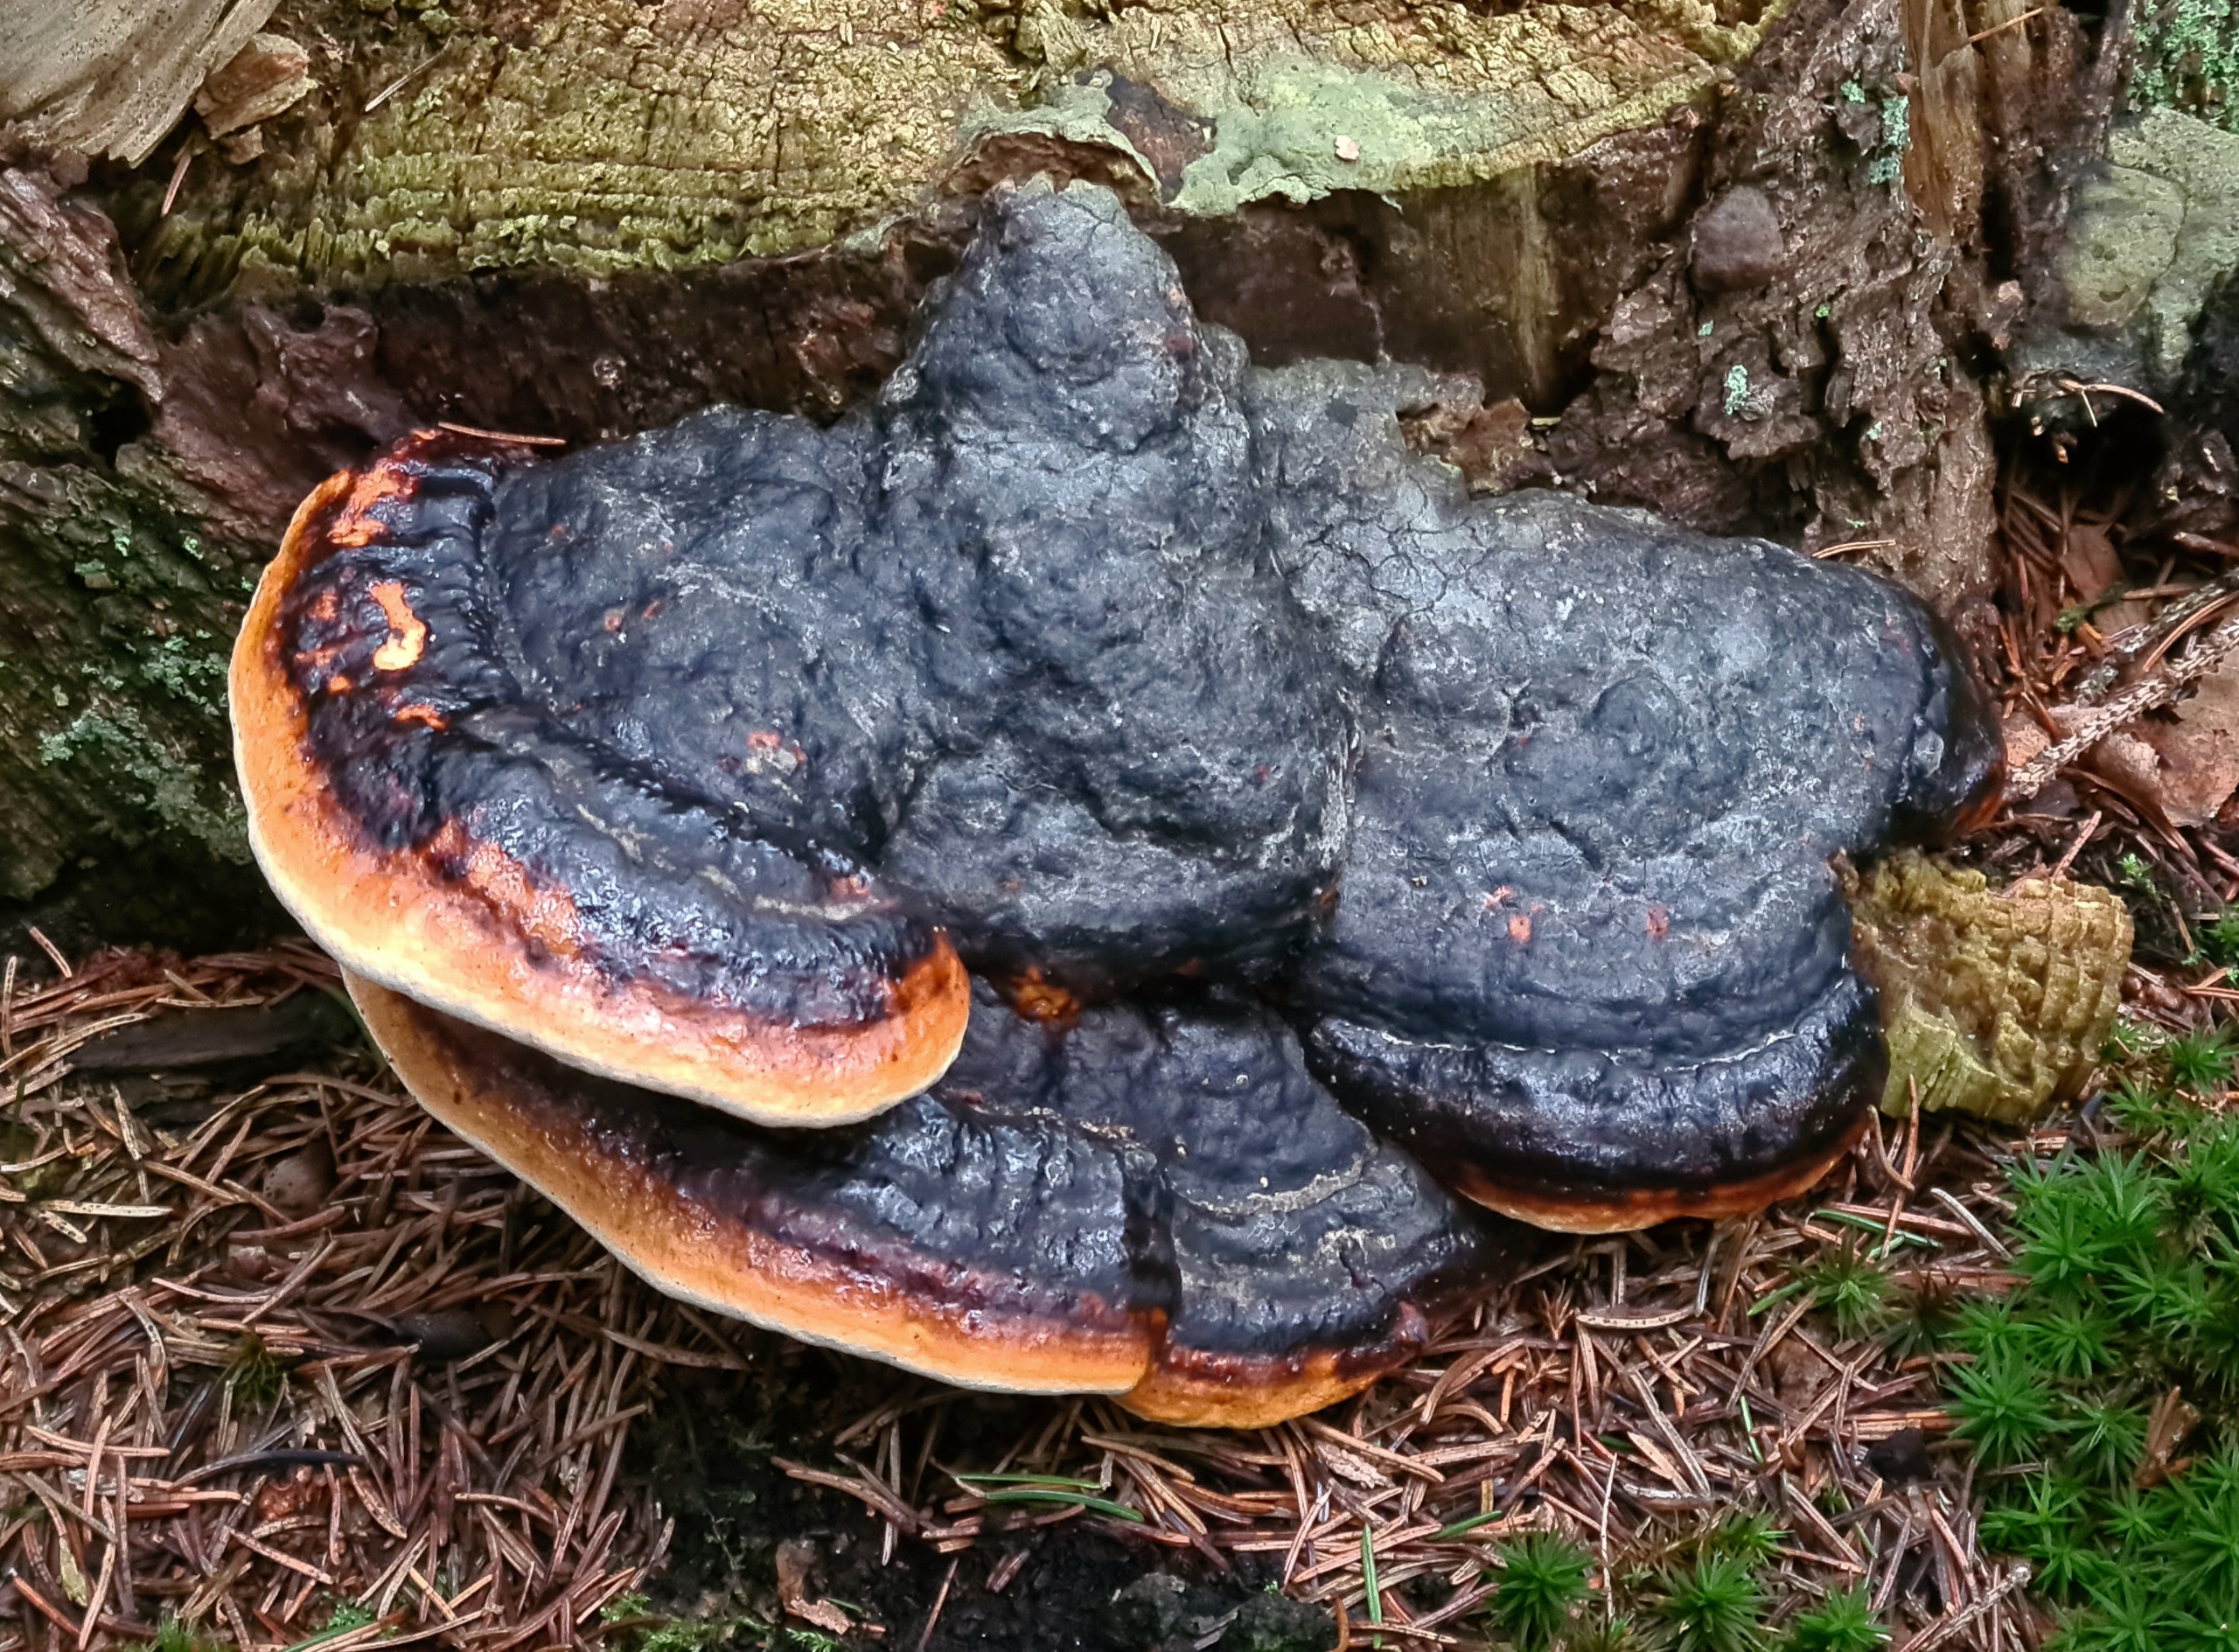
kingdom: Fungi
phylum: Basidiomycota
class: Agaricomycetes
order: Polyporales
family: Fomitopsidaceae
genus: Fomitopsis
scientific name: Fomitopsis pinicola
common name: Randbæltet hovporesvamp
